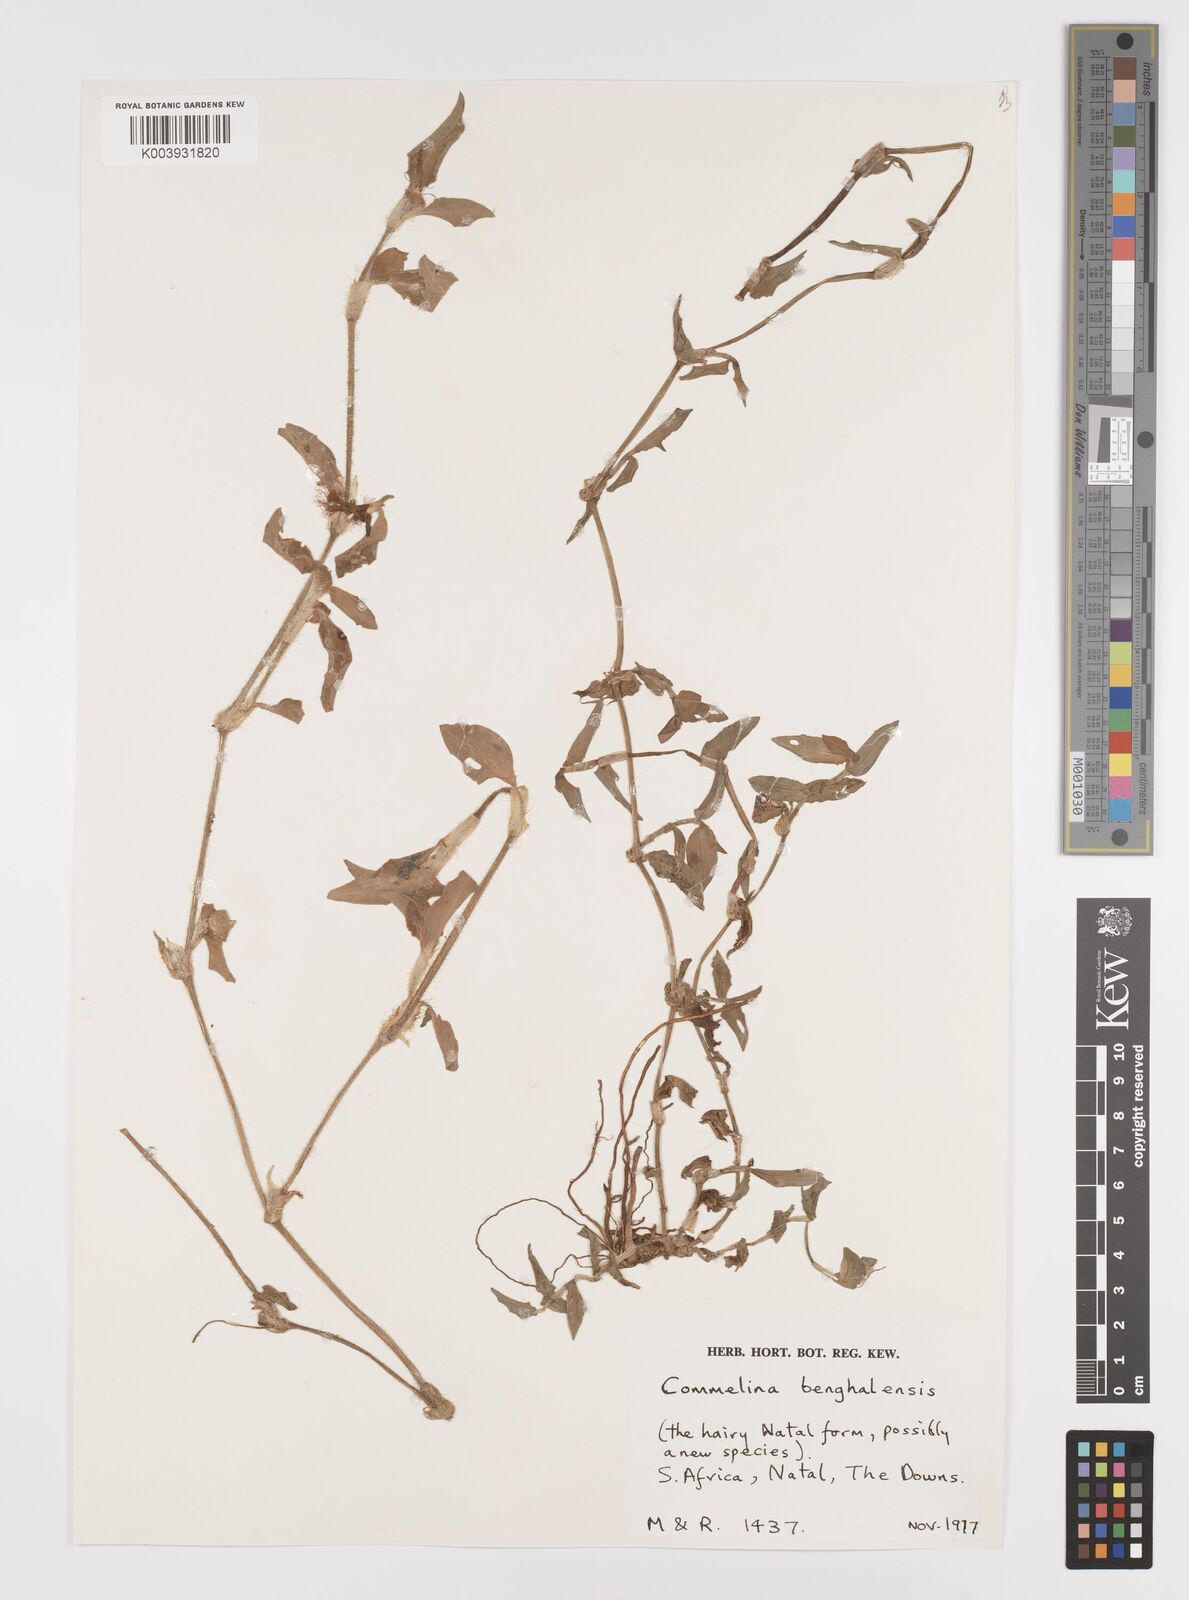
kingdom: Plantae
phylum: Tracheophyta
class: Liliopsida
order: Commelinales
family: Commelinaceae
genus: Commelina
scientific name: Commelina benghalensis
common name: Jio
